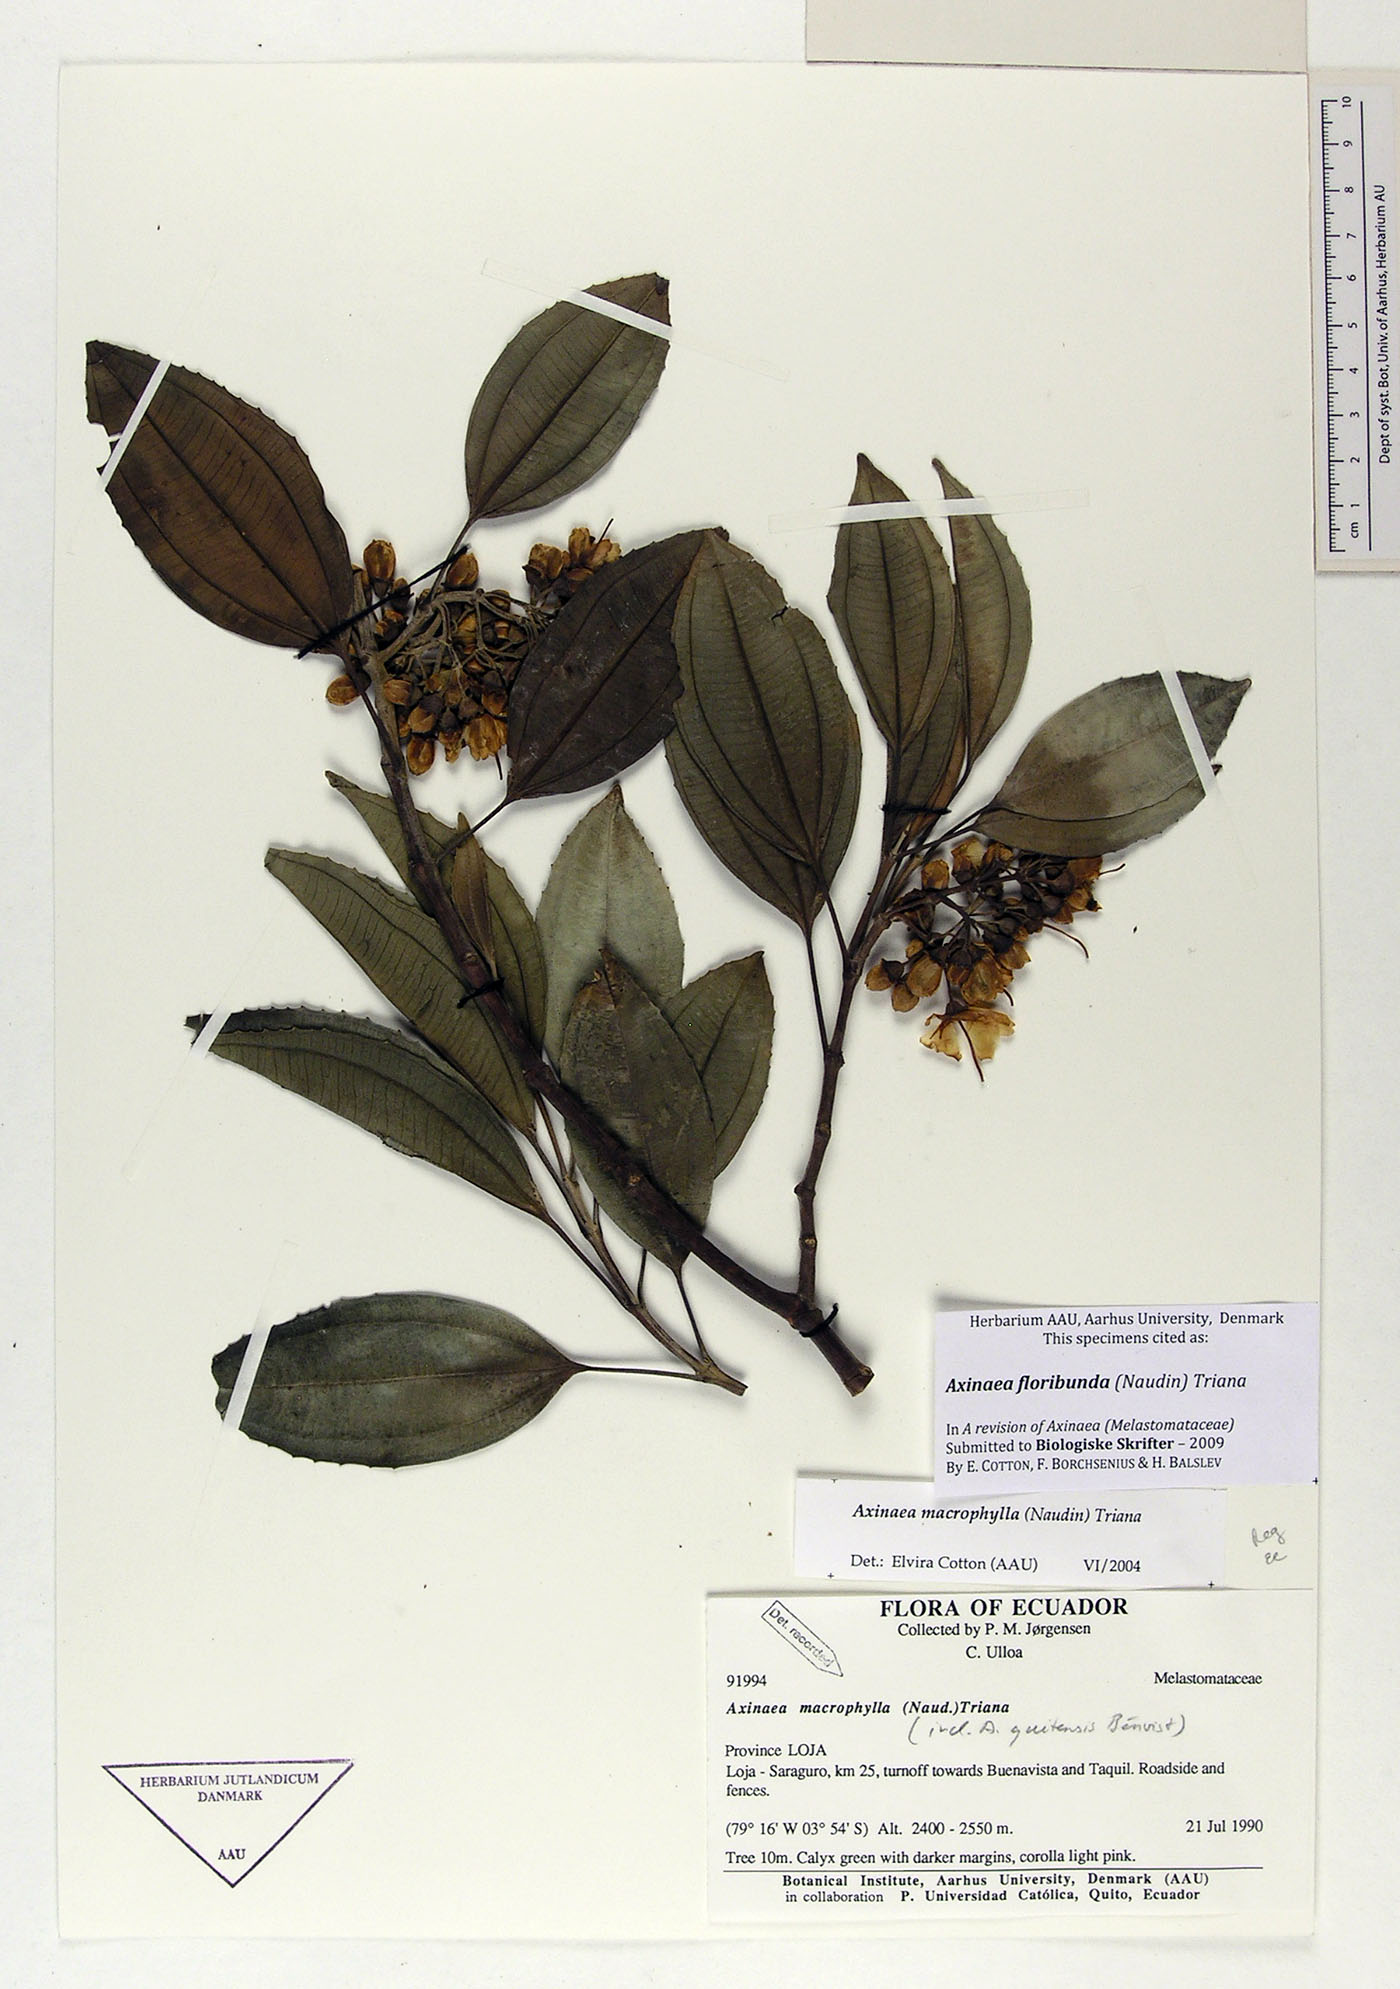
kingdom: Plantae
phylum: Tracheophyta
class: Magnoliopsida
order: Myrtales
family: Melastomataceae
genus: Axinaea
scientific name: Axinaea floribunda
